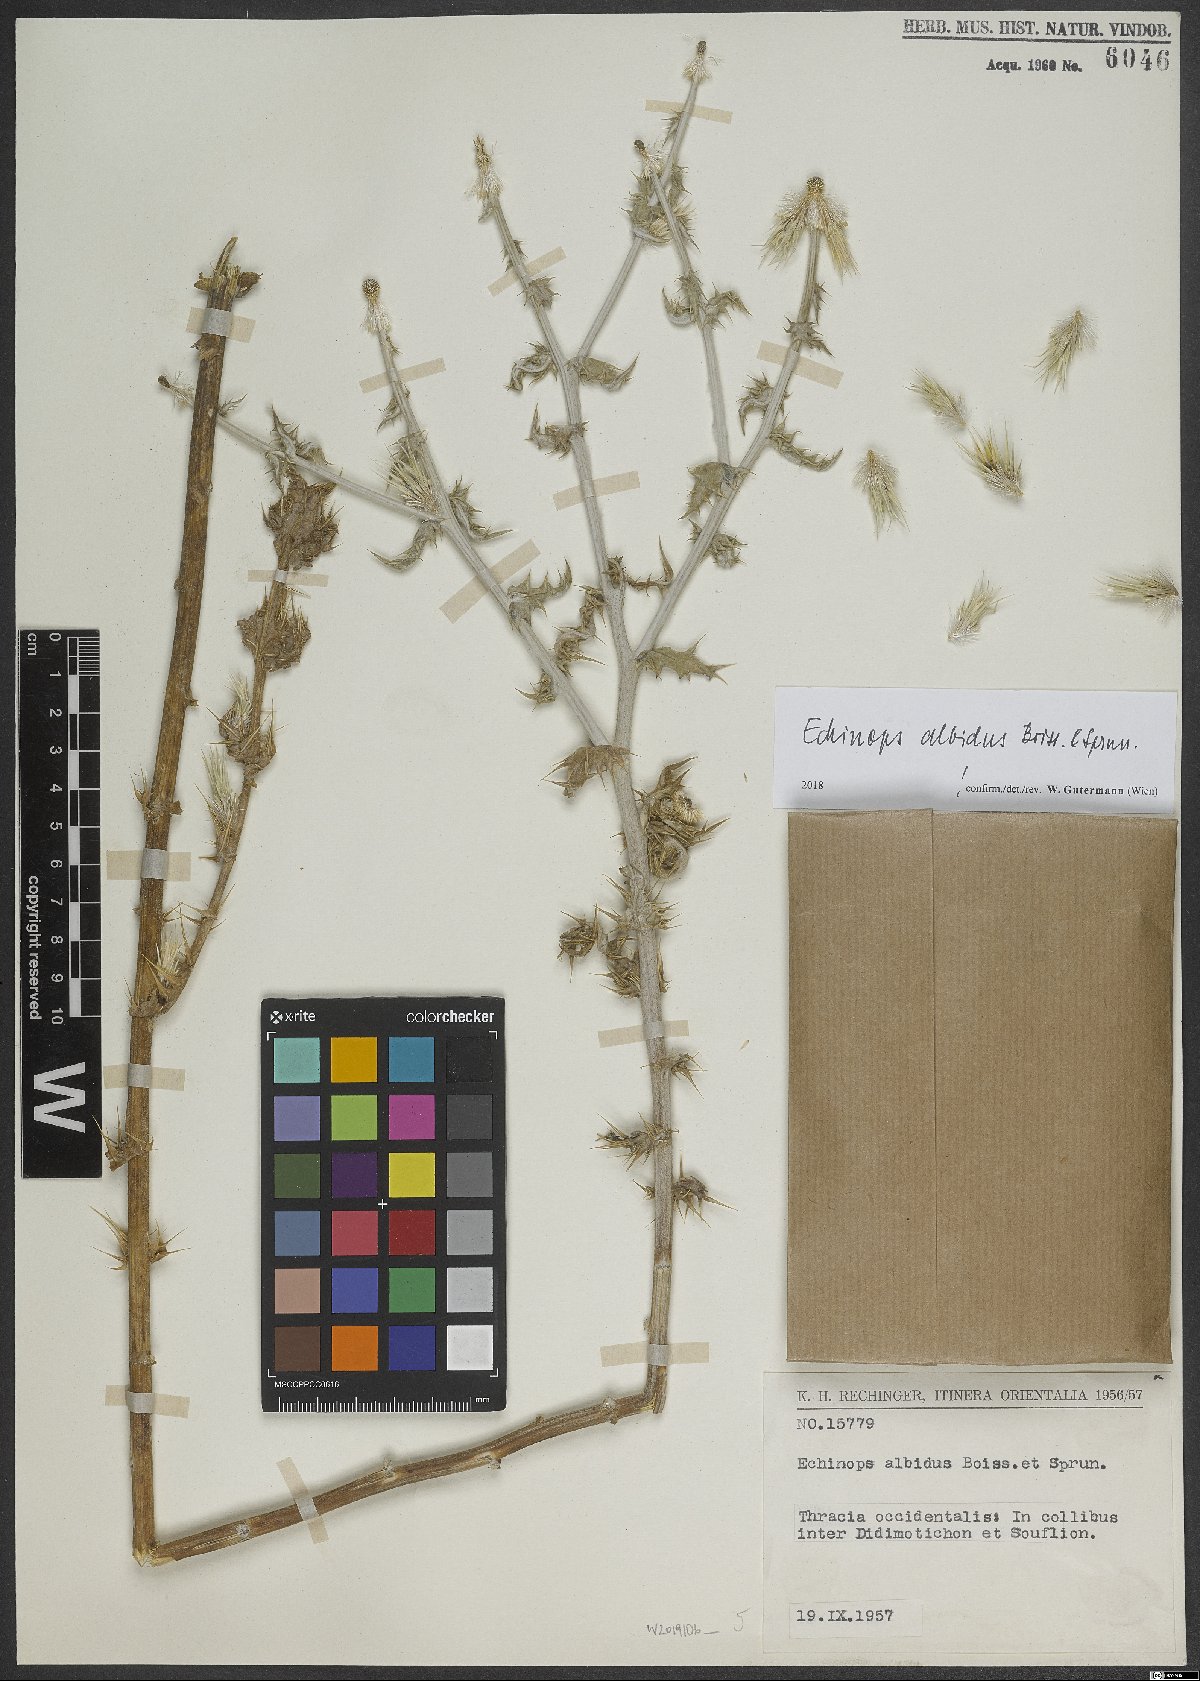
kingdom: Plantae
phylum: Tracheophyta
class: Magnoliopsida
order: Asterales
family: Asteraceae
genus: Echinops
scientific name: Echinops sphaerocephalus
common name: Glandular globe-thistle
